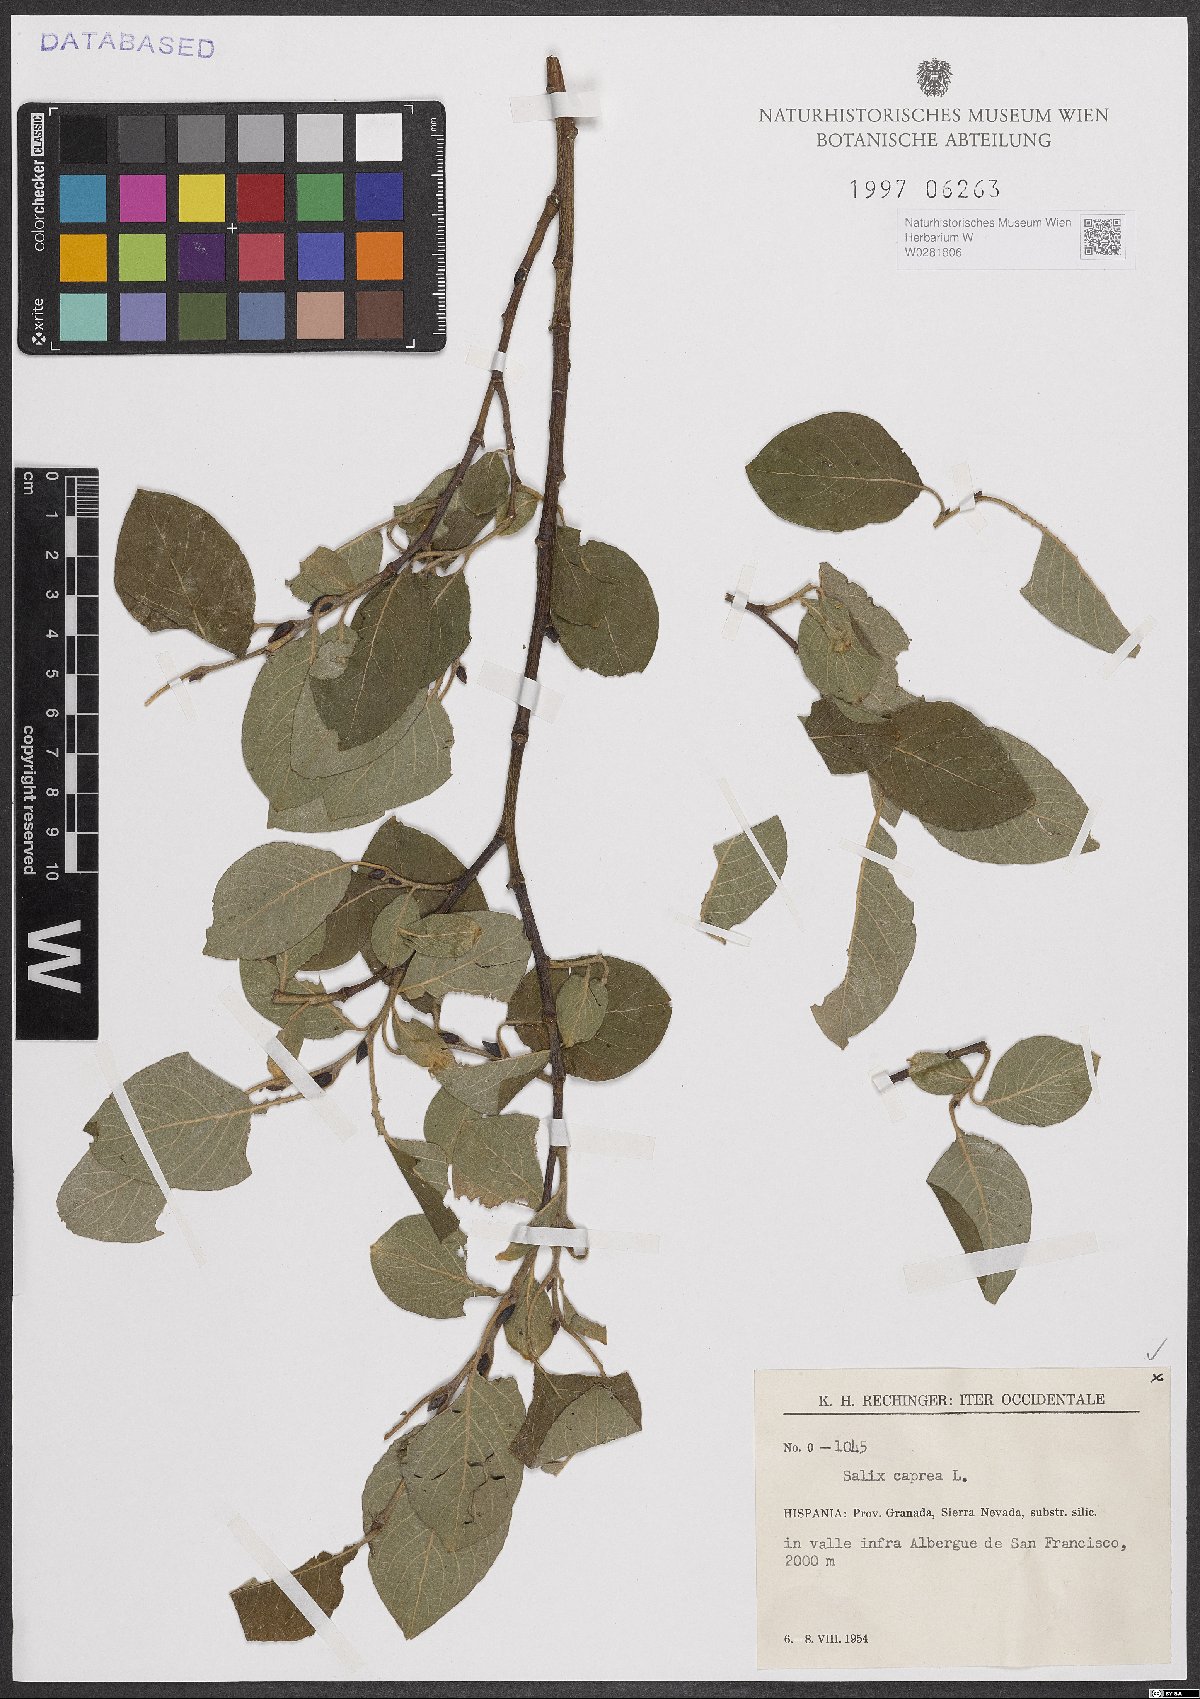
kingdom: Plantae
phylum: Tracheophyta
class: Magnoliopsida
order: Malpighiales
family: Salicaceae
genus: Salix
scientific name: Salix caprea
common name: Goat willow
